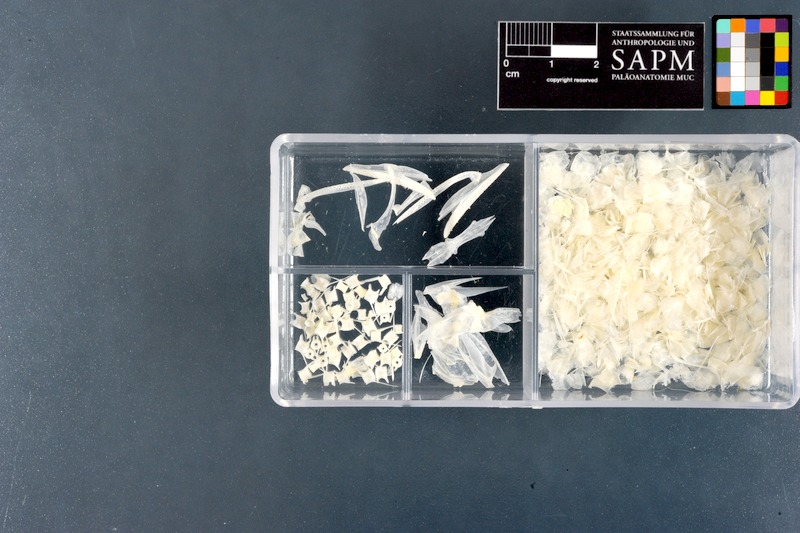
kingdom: Animalia
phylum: Chordata
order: Aulopiformes
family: Synodontidae
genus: Saurida
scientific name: Saurida undosquamis
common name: Brushtooth lizardfish
